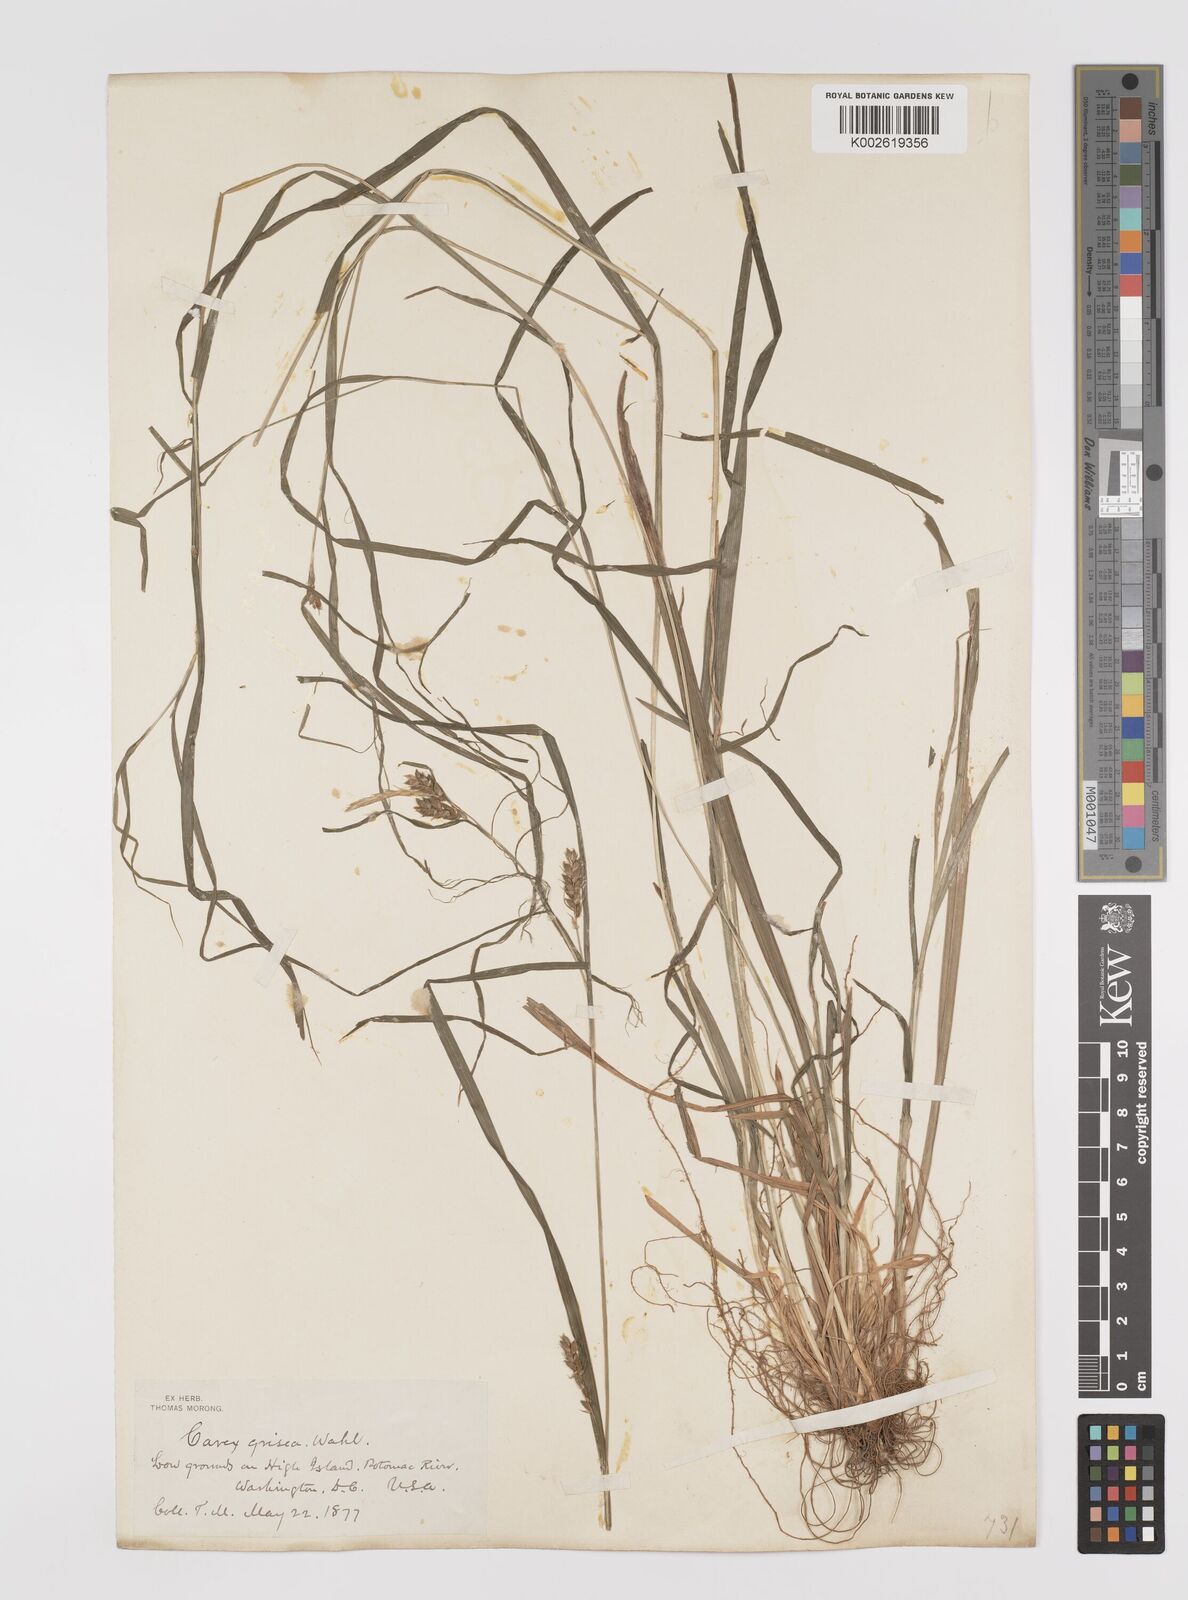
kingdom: Plantae
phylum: Tracheophyta
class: Liliopsida
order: Poales
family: Cyperaceae
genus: Carex
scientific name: Carex grisea
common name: Eastern narrow-leaved sedge
